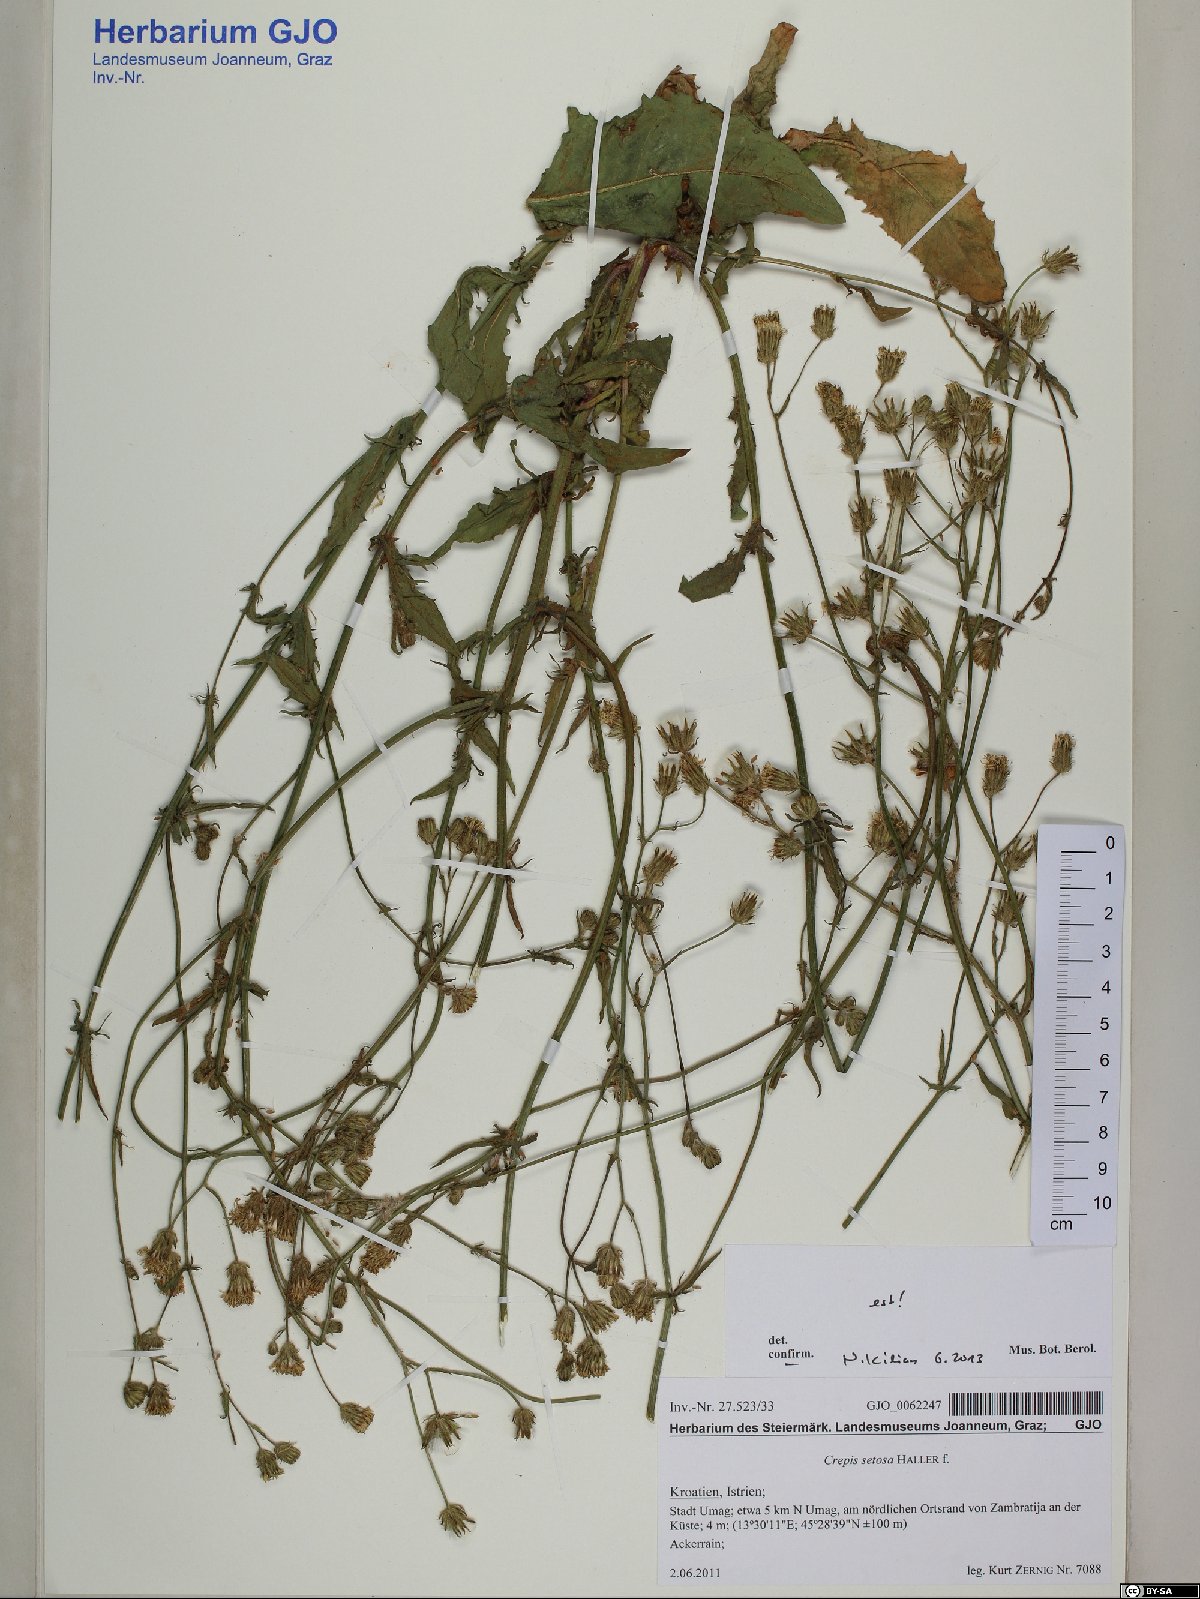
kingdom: Plantae
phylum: Tracheophyta
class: Magnoliopsida
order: Asterales
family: Asteraceae
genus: Crepis
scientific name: Crepis setosa
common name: Bristly hawk's-beard
